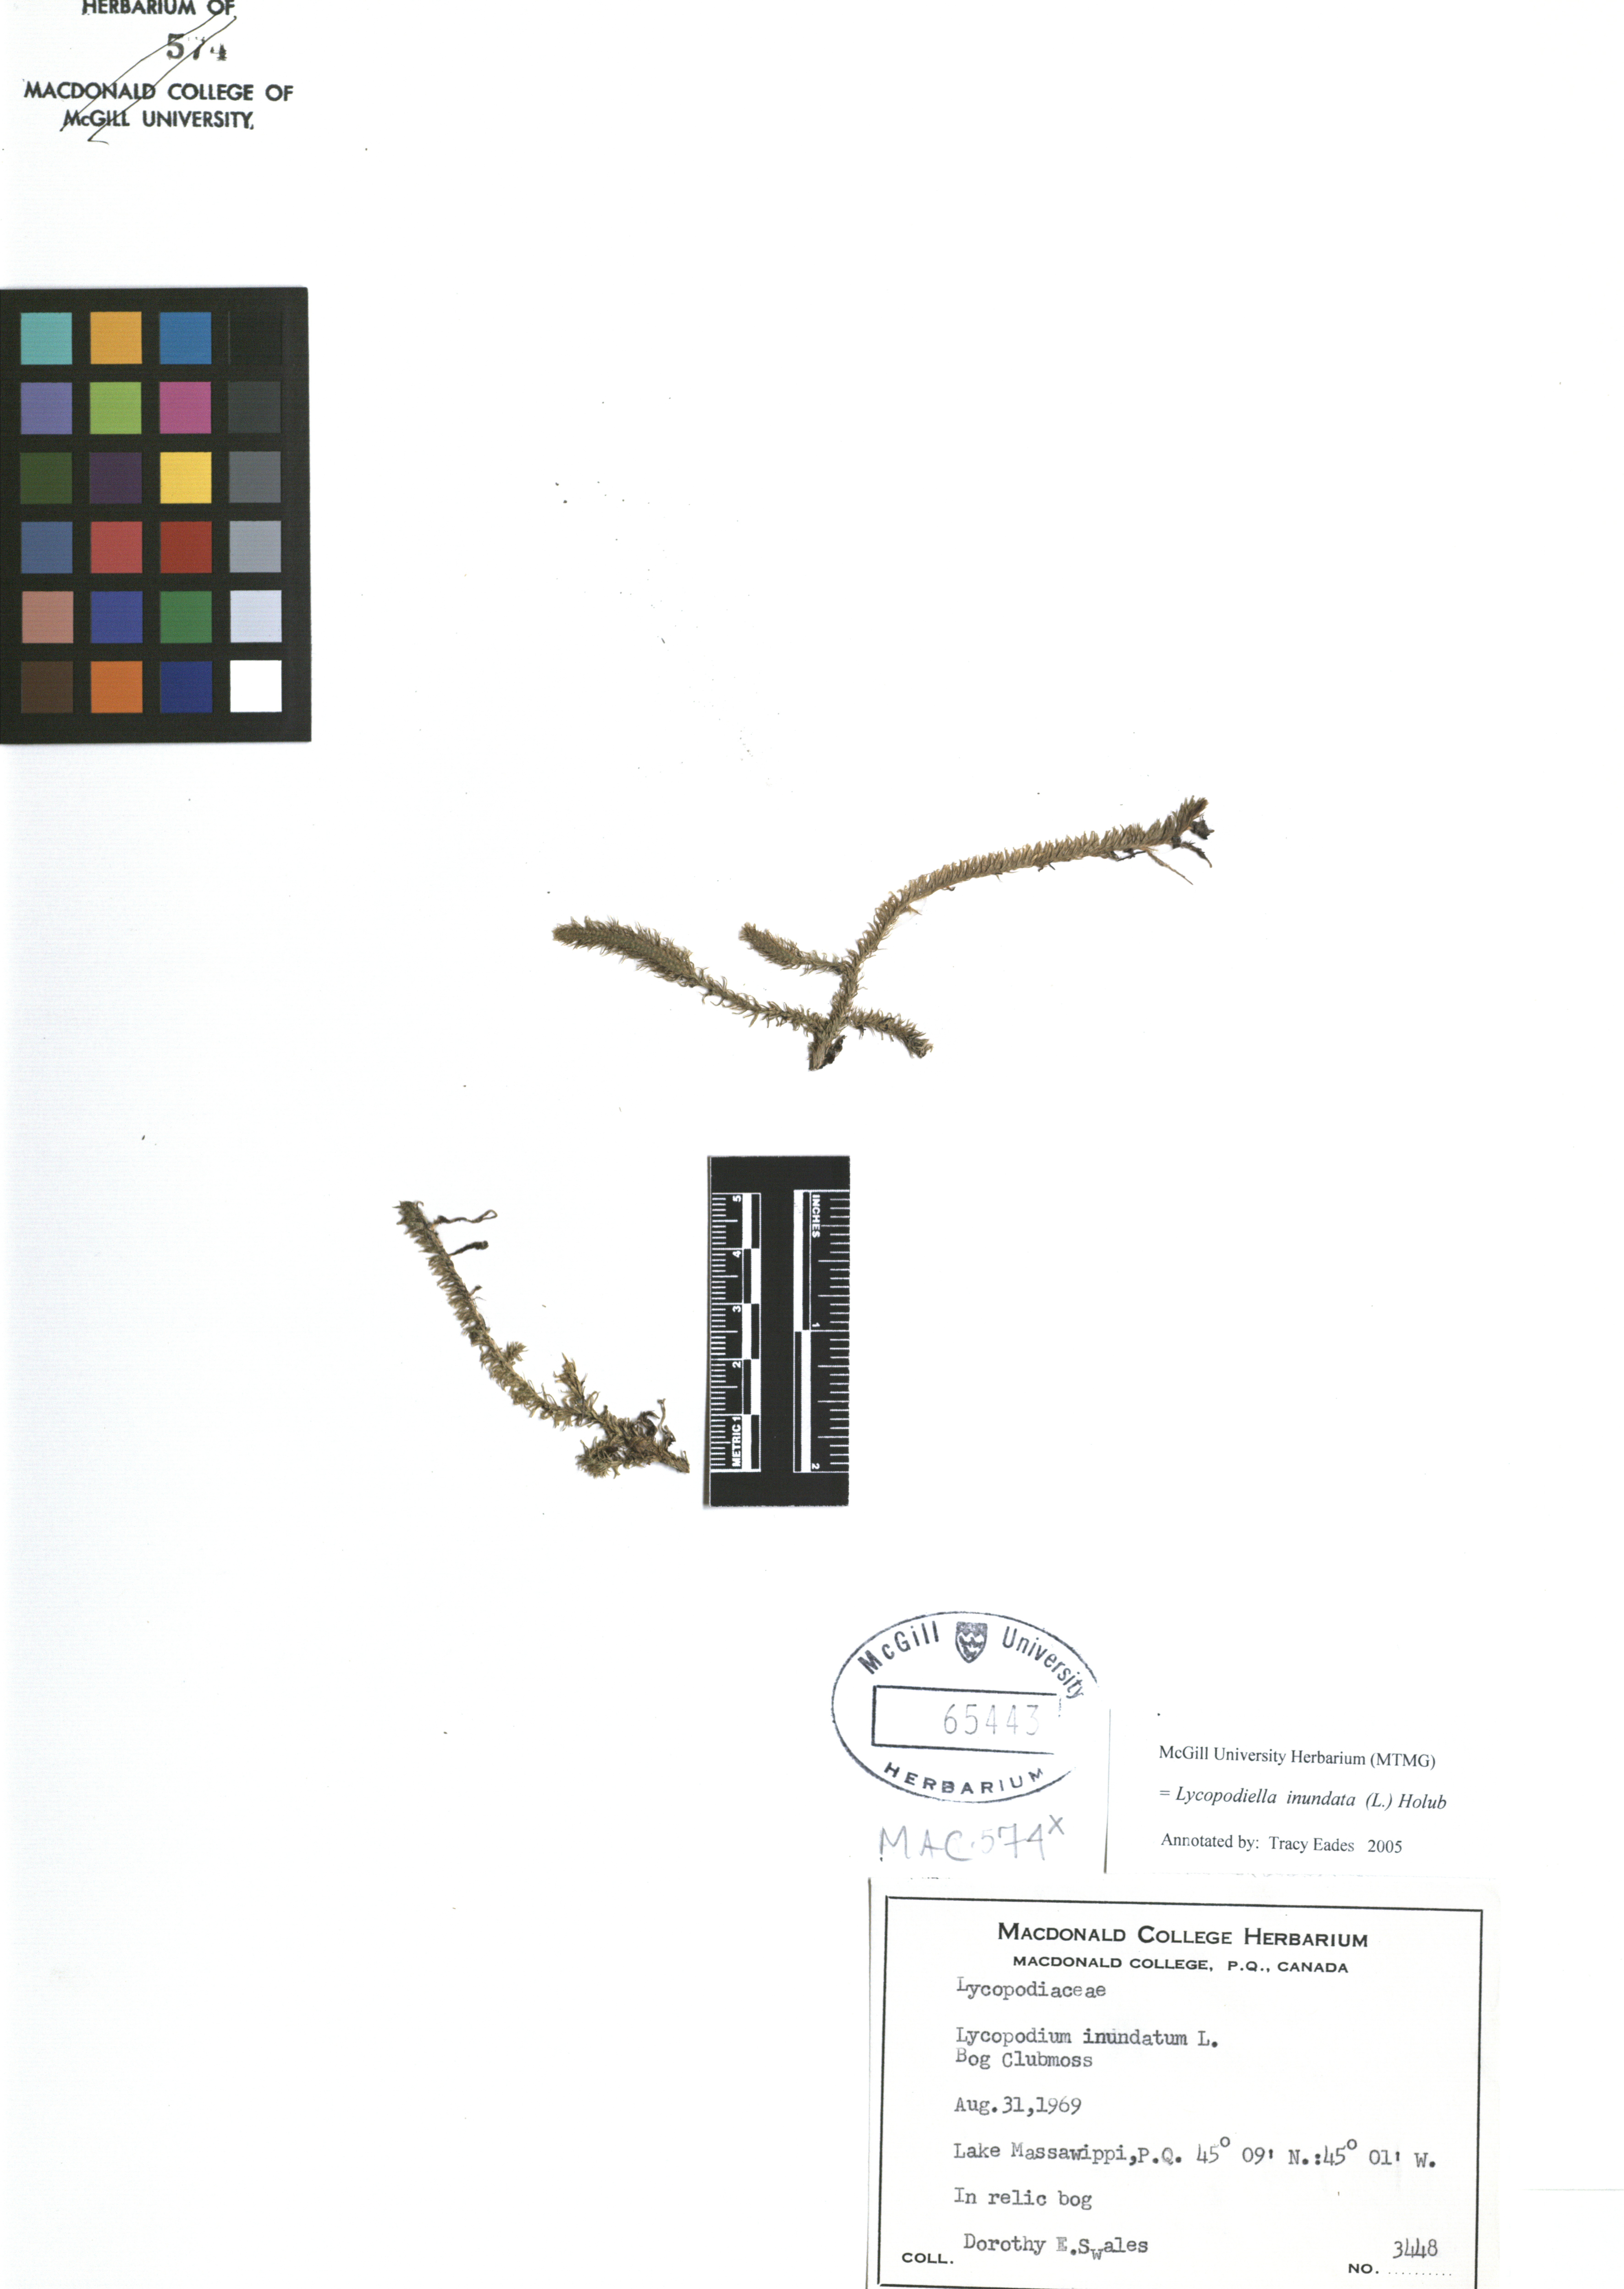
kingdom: Plantae
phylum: Tracheophyta
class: Lycopodiopsida
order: Lycopodiales
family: Lycopodiaceae
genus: Lycopodiella
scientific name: Lycopodiella inundata
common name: Marsh clubmoss
